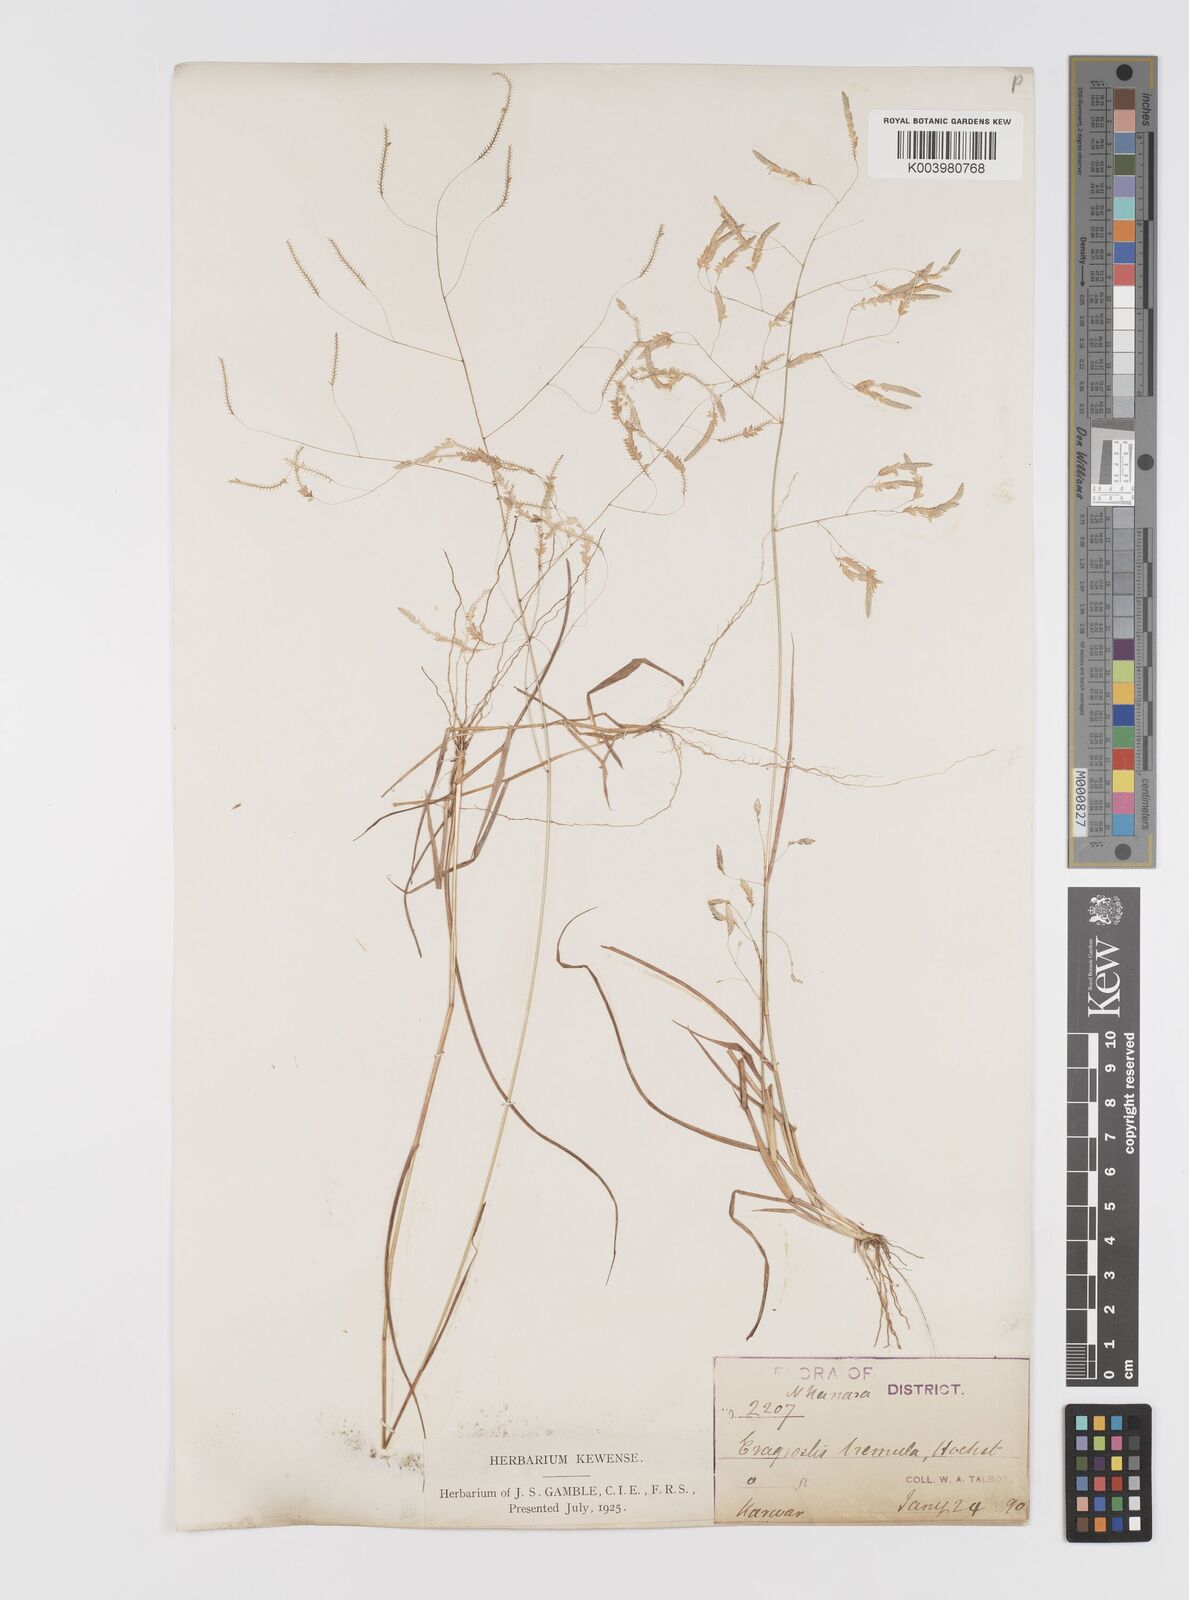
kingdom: Plantae
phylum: Tracheophyta
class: Liliopsida
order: Poales
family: Poaceae
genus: Eragrostis
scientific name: Eragrostis tremula
